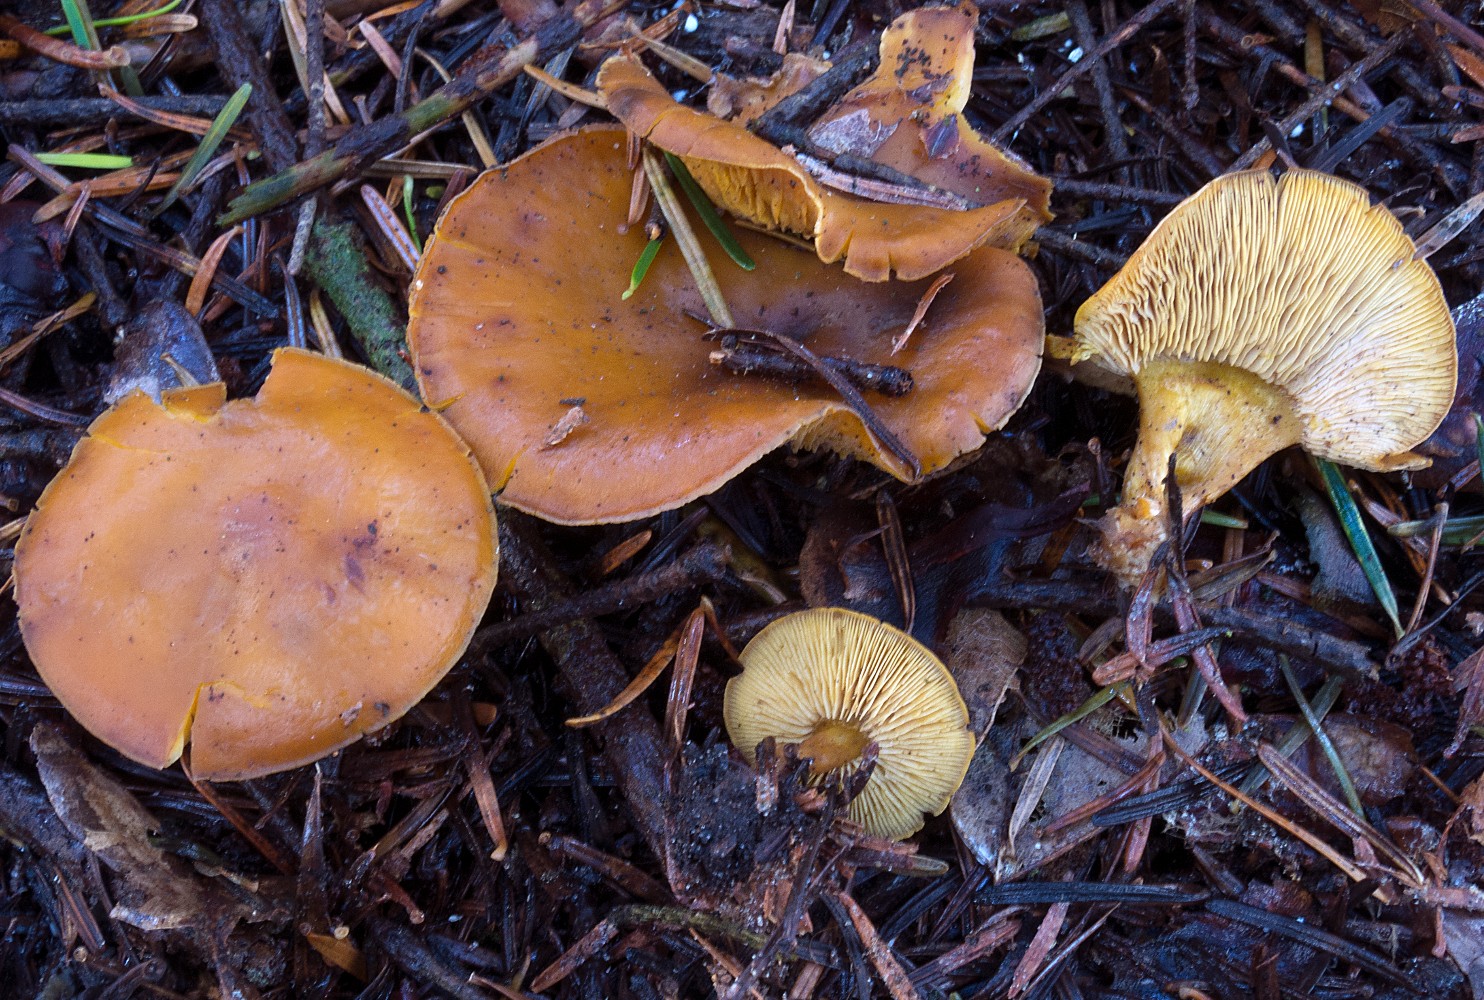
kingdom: Fungi
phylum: Basidiomycota
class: Agaricomycetes
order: Agaricales
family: Lyophyllaceae
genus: Calocybe
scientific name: Calocybe chrysenteron
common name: brandgul fagerhat
